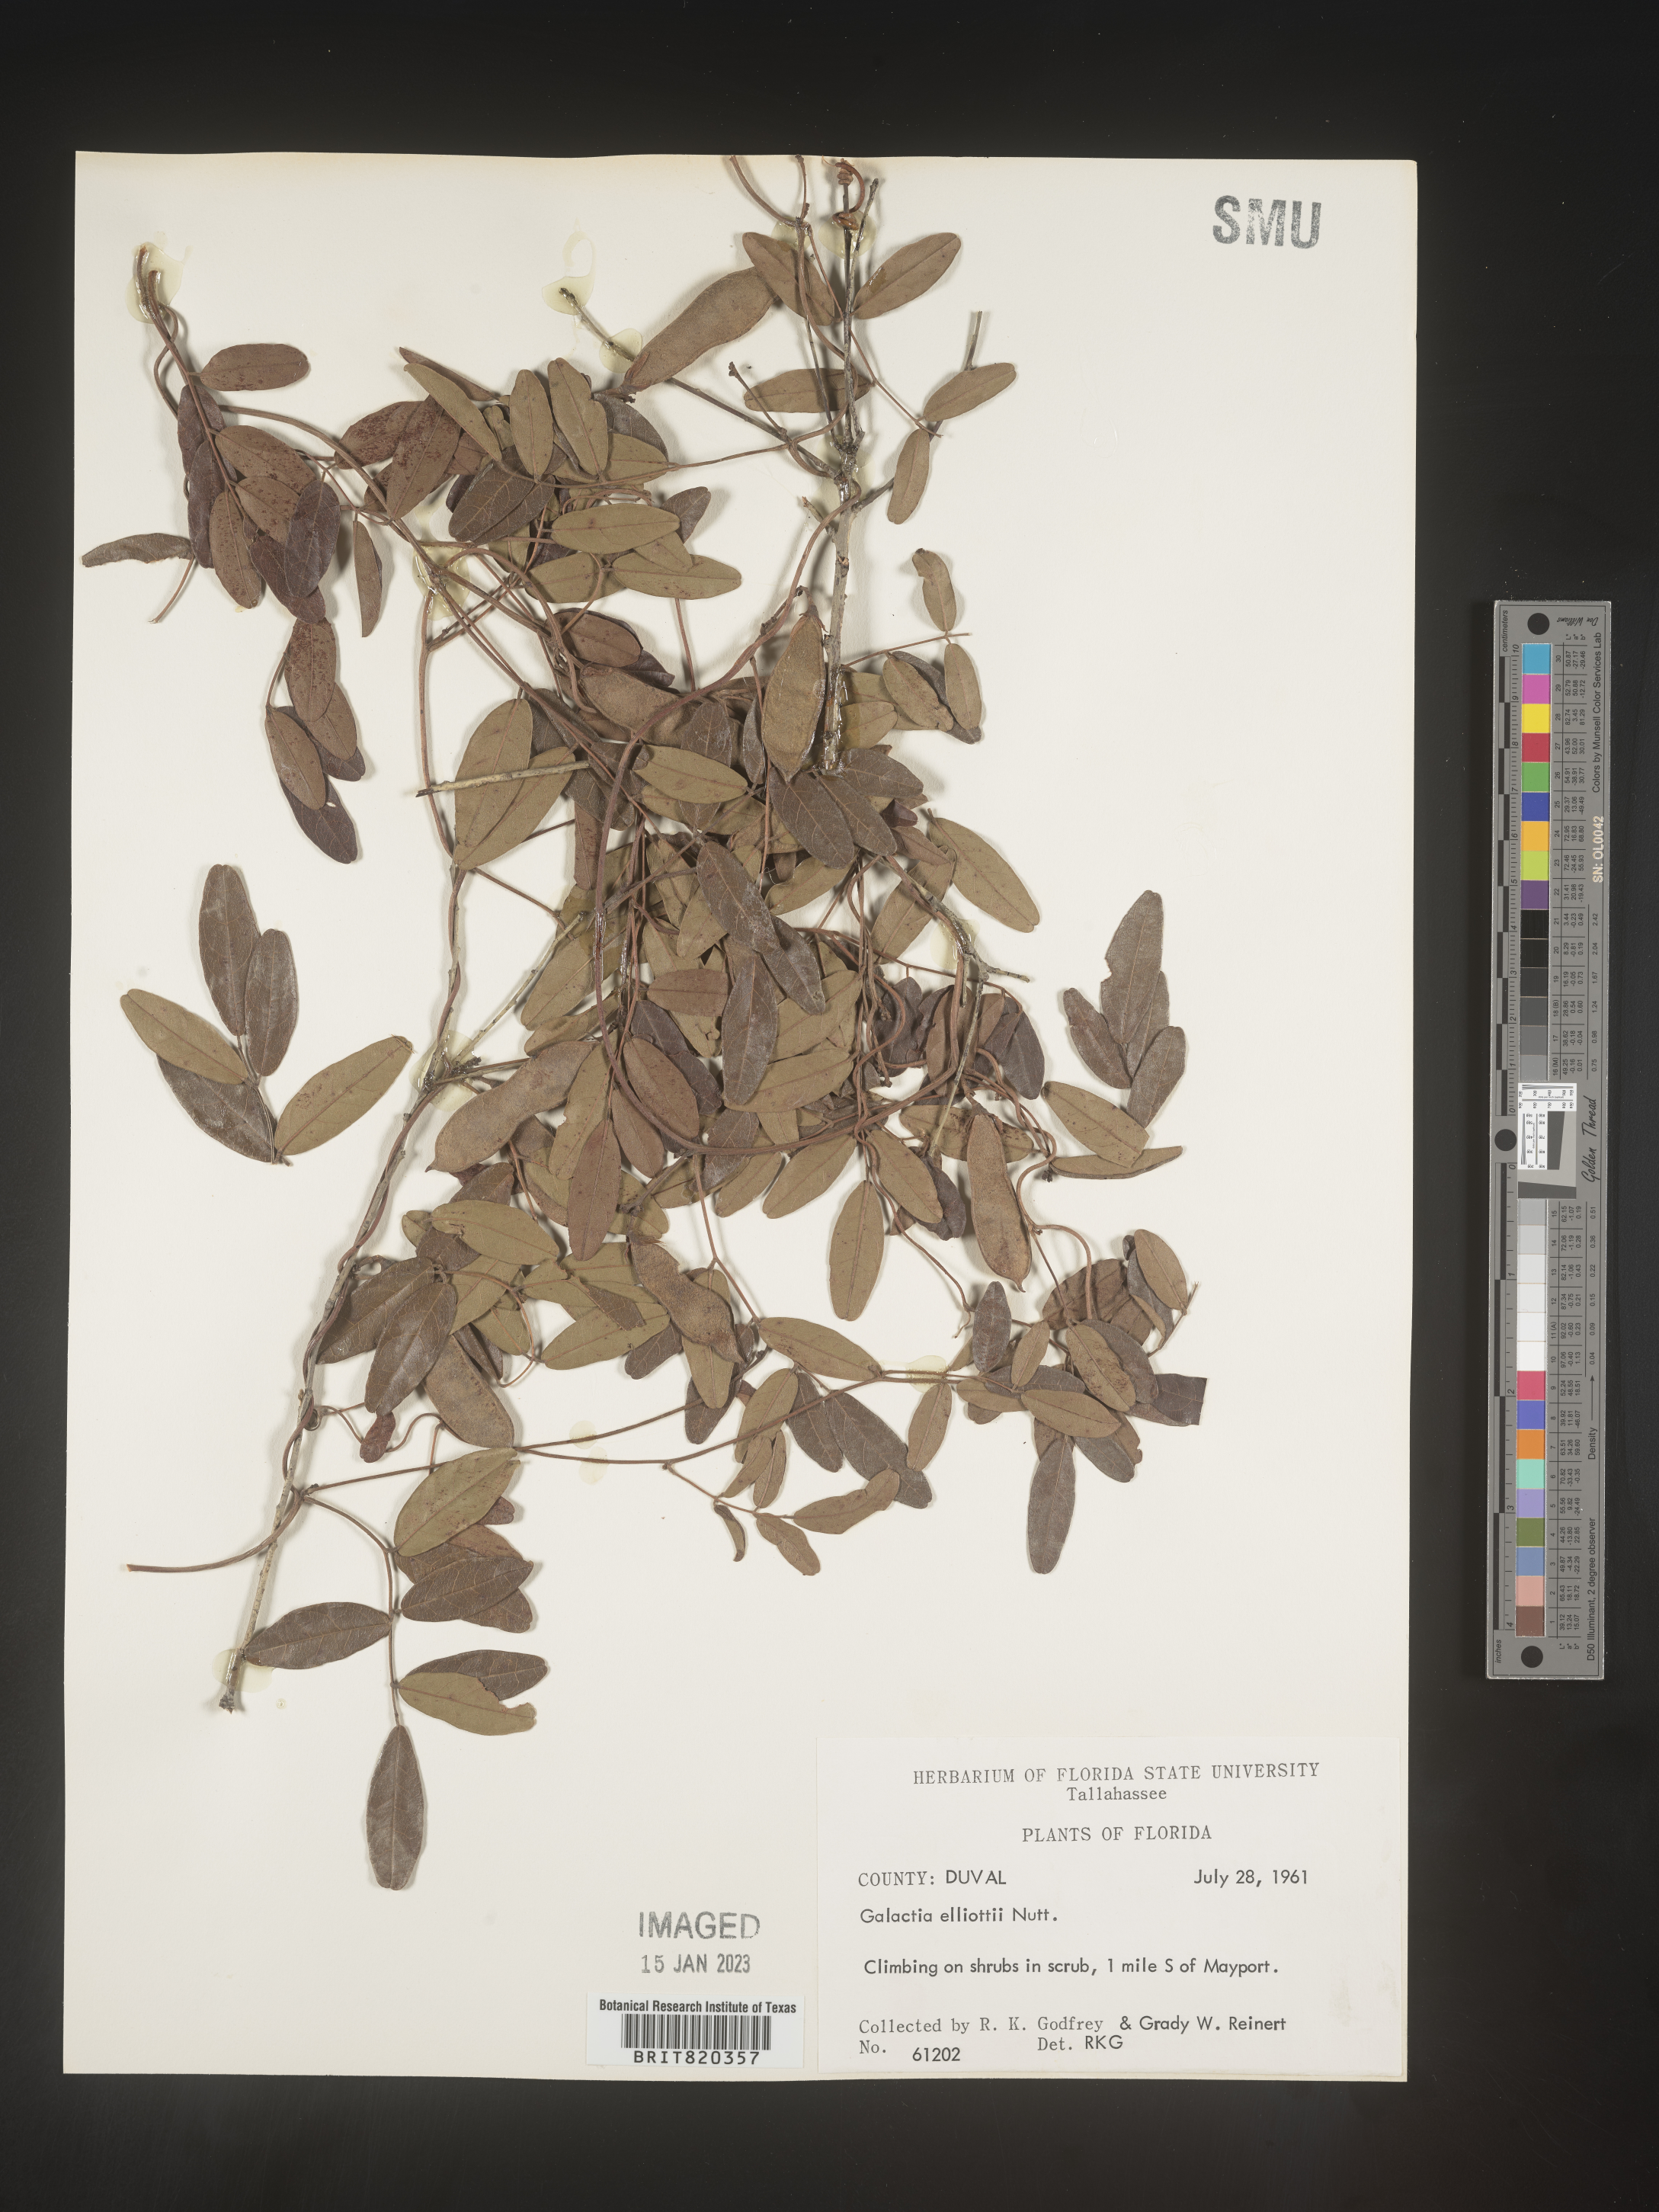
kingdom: Plantae
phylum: Tracheophyta
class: Magnoliopsida
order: Fabales
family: Fabaceae
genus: Galactia
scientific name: Galactia elliottii
